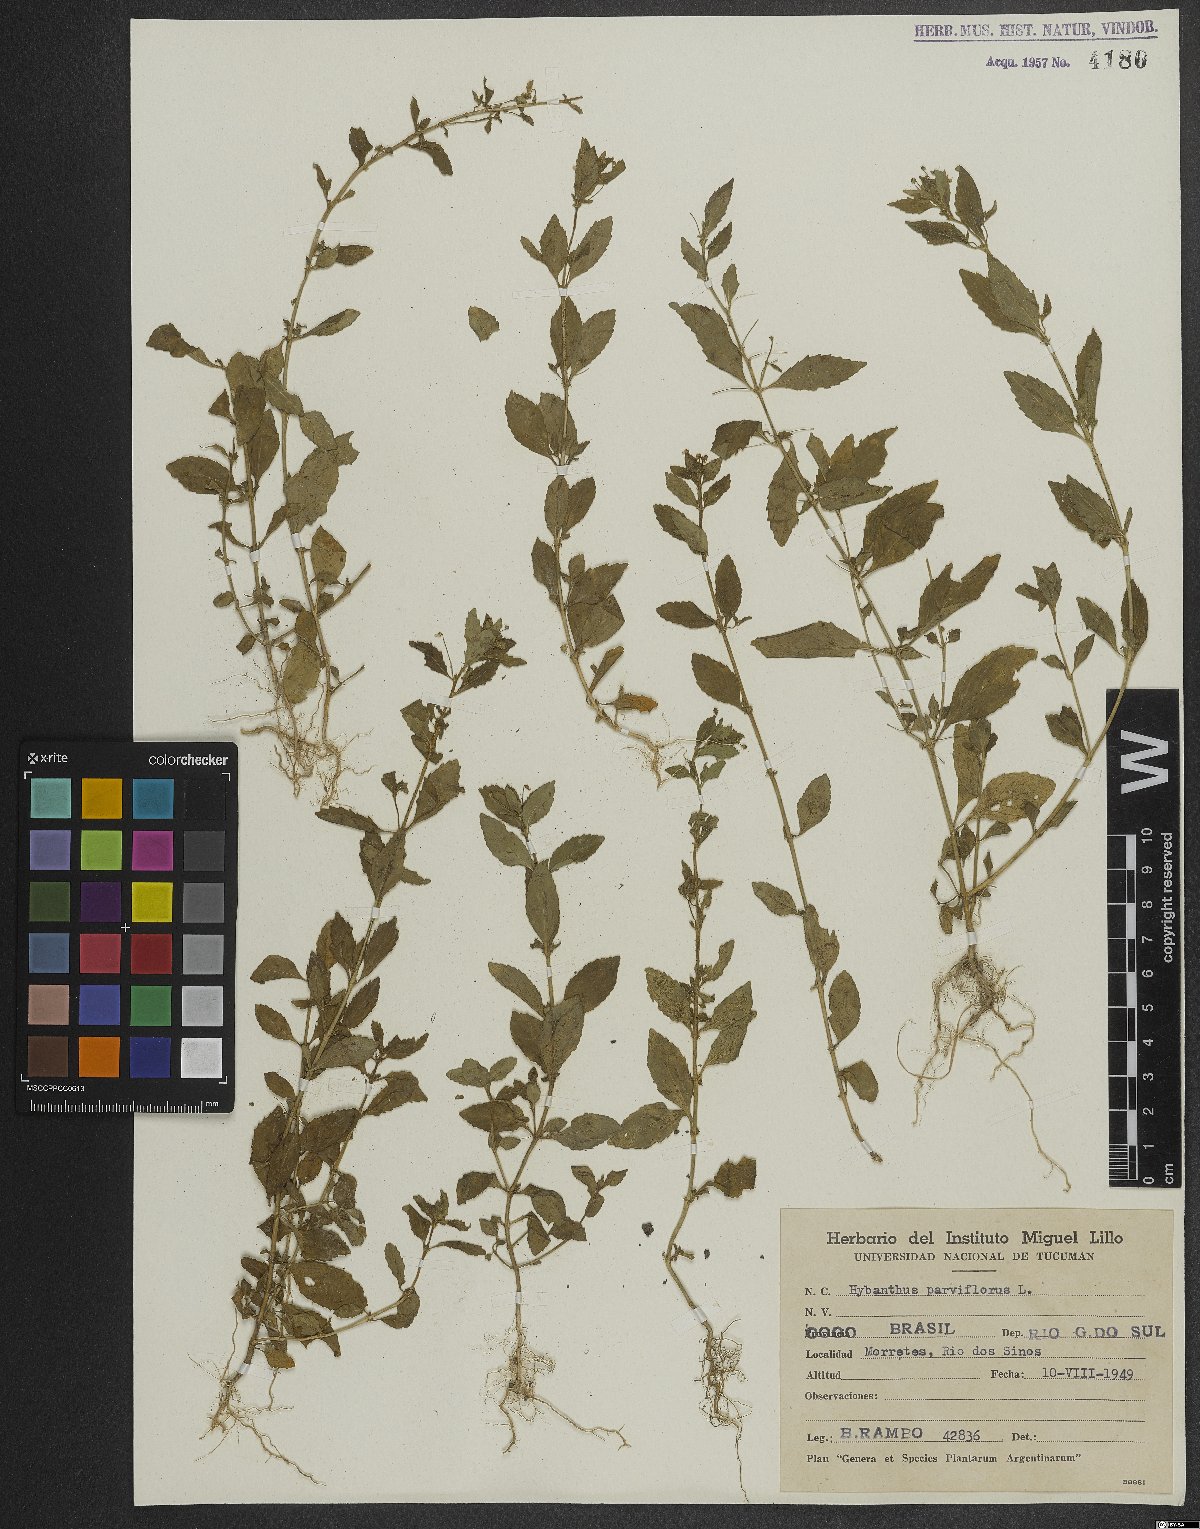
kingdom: Plantae
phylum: Tracheophyta
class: Magnoliopsida
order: Malpighiales
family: Violaceae
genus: Pombalia
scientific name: Pombalia parviflora
